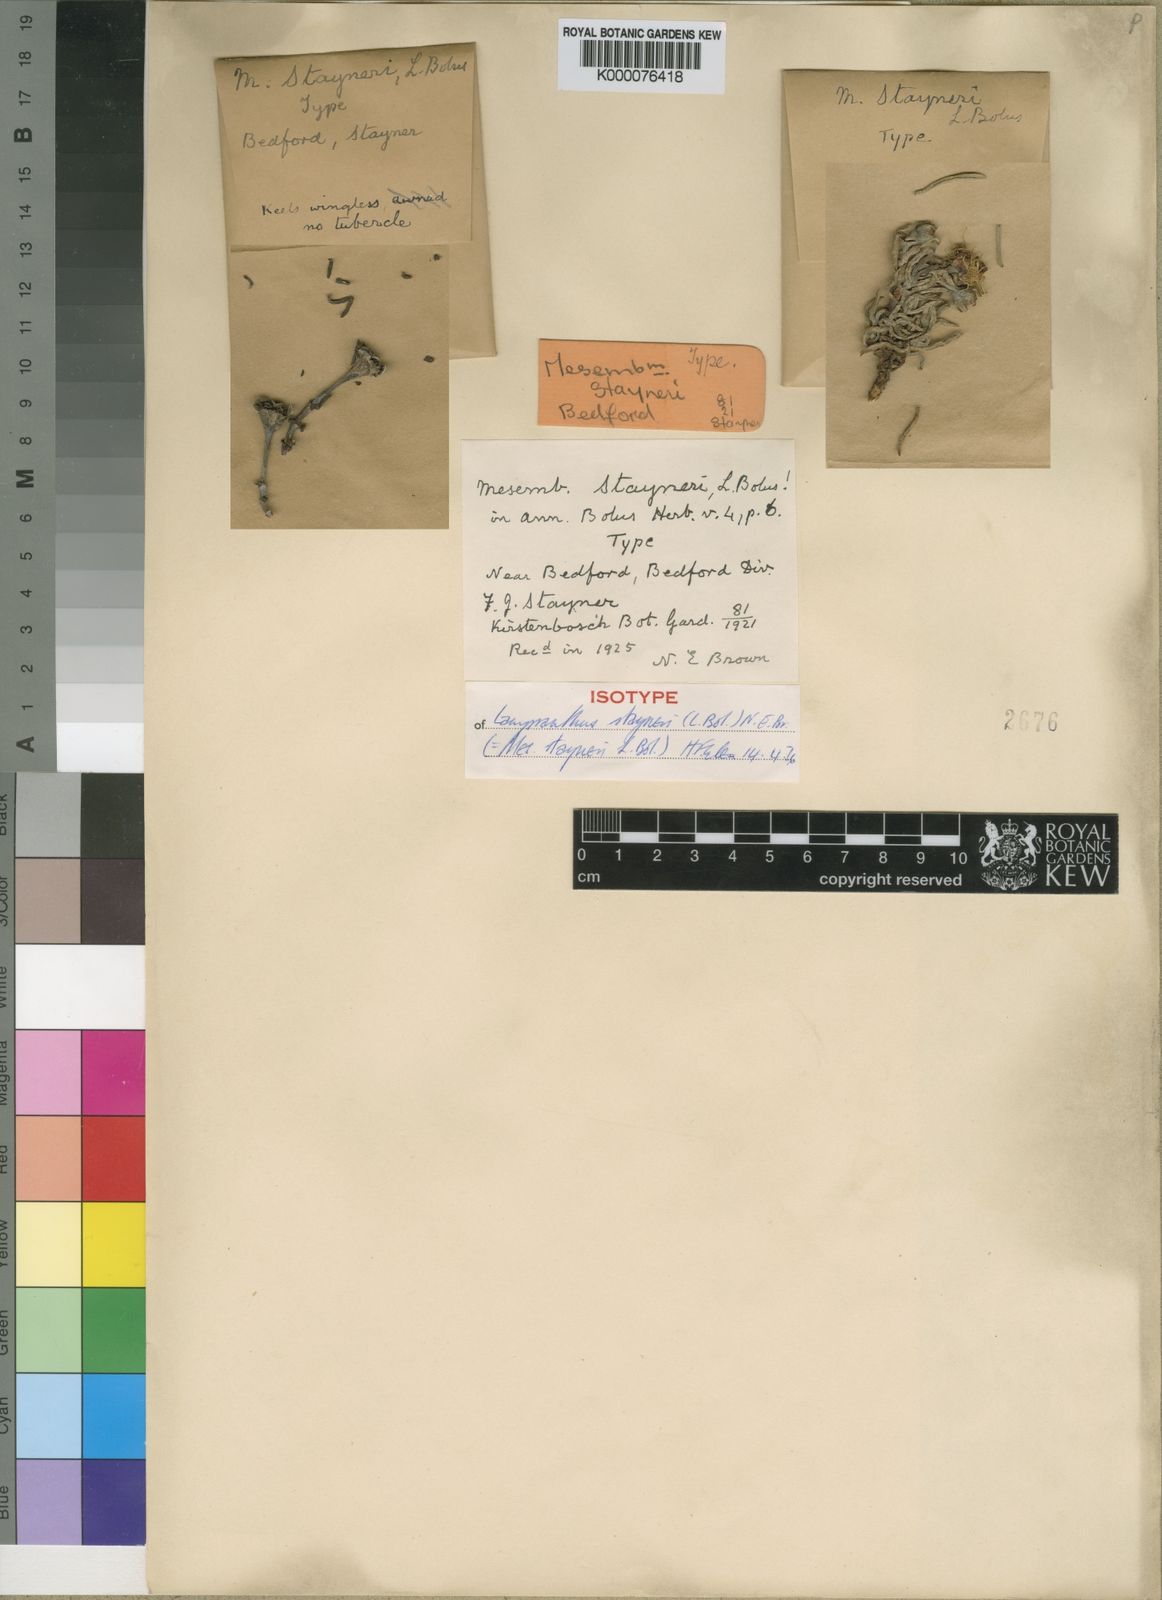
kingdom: Plantae
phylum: Tracheophyta
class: Magnoliopsida
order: Caryophyllales
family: Aizoaceae
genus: Lampranthus
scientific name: Lampranthus stayneri
